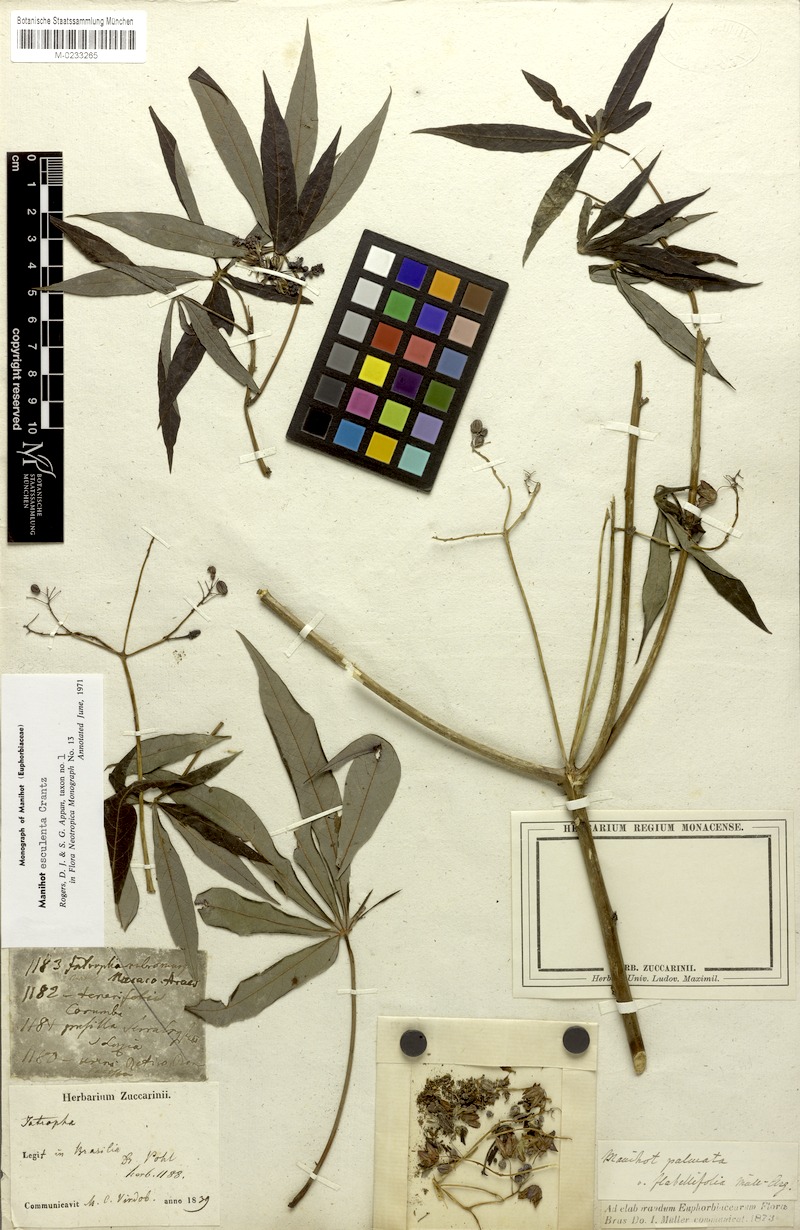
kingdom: Plantae
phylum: Tracheophyta
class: Magnoliopsida
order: Malpighiales
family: Euphorbiaceae
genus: Manihot
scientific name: Manihot esculenta
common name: Cassava
